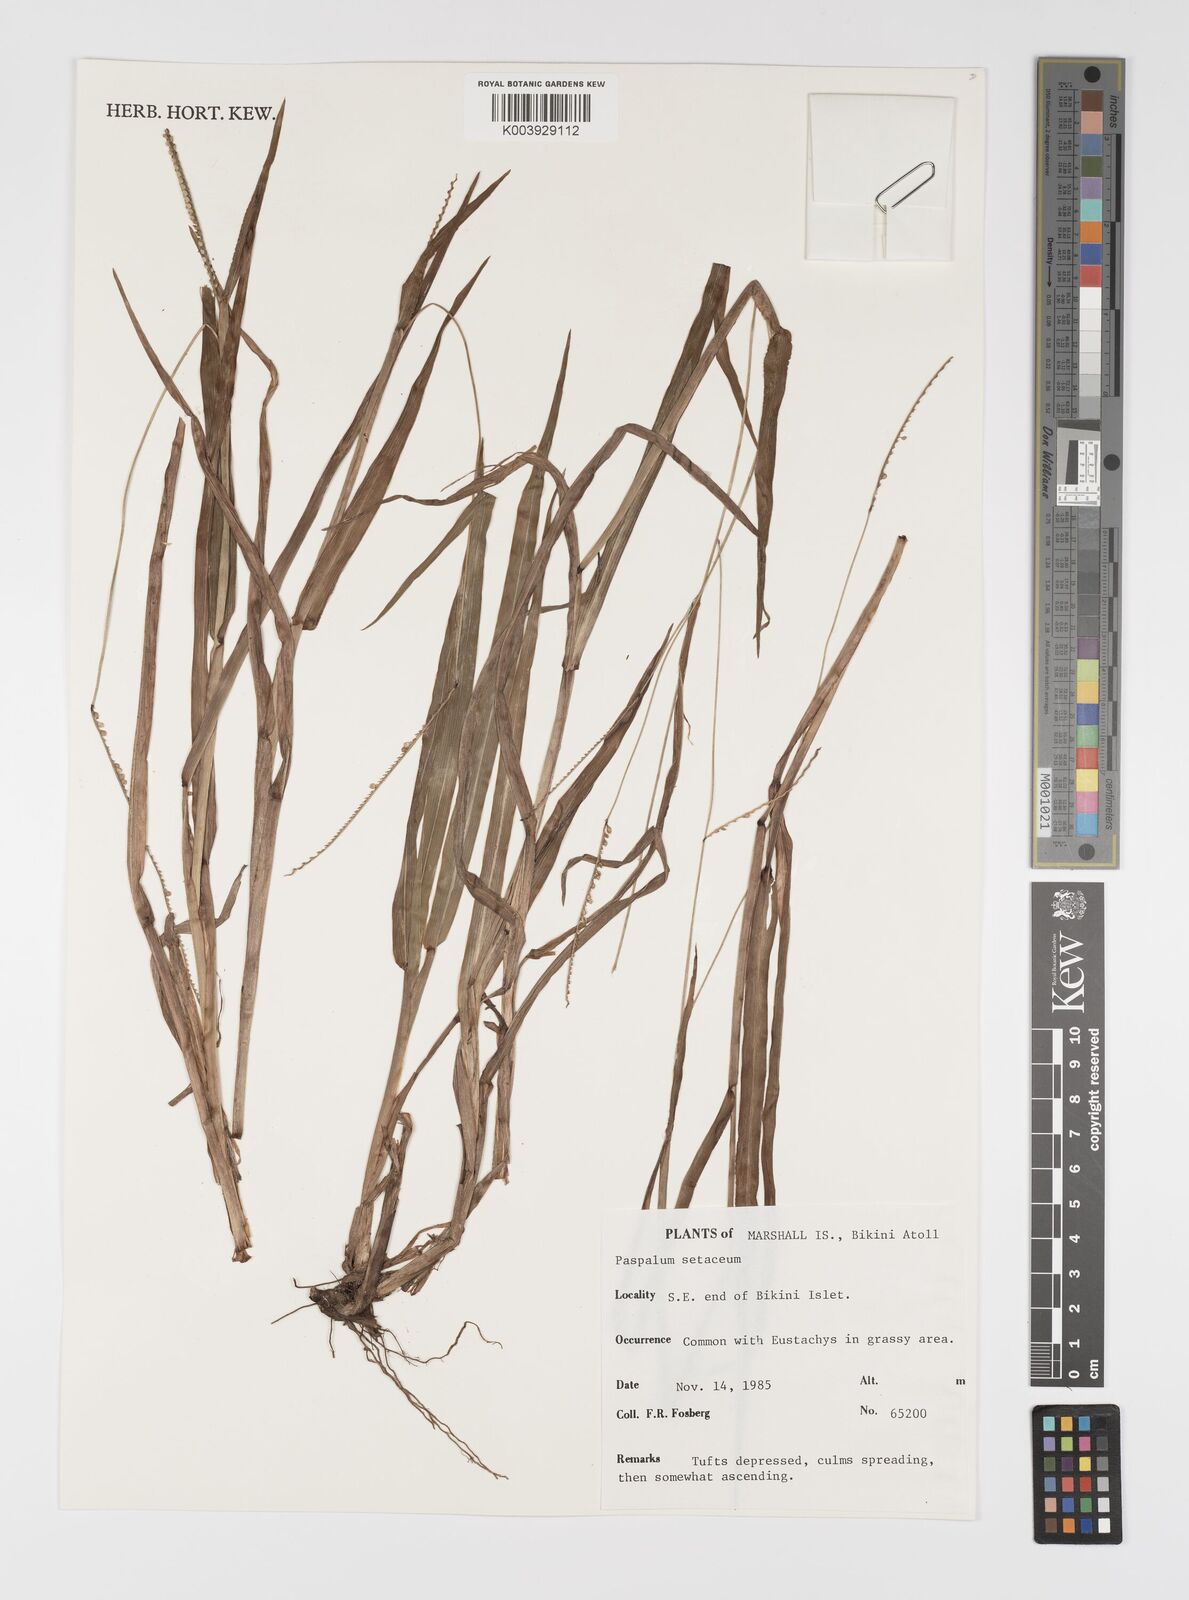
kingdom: Plantae
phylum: Tracheophyta
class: Liliopsida
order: Poales
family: Poaceae
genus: Paspalum
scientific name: Paspalum setaceum
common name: Slender paspalum
